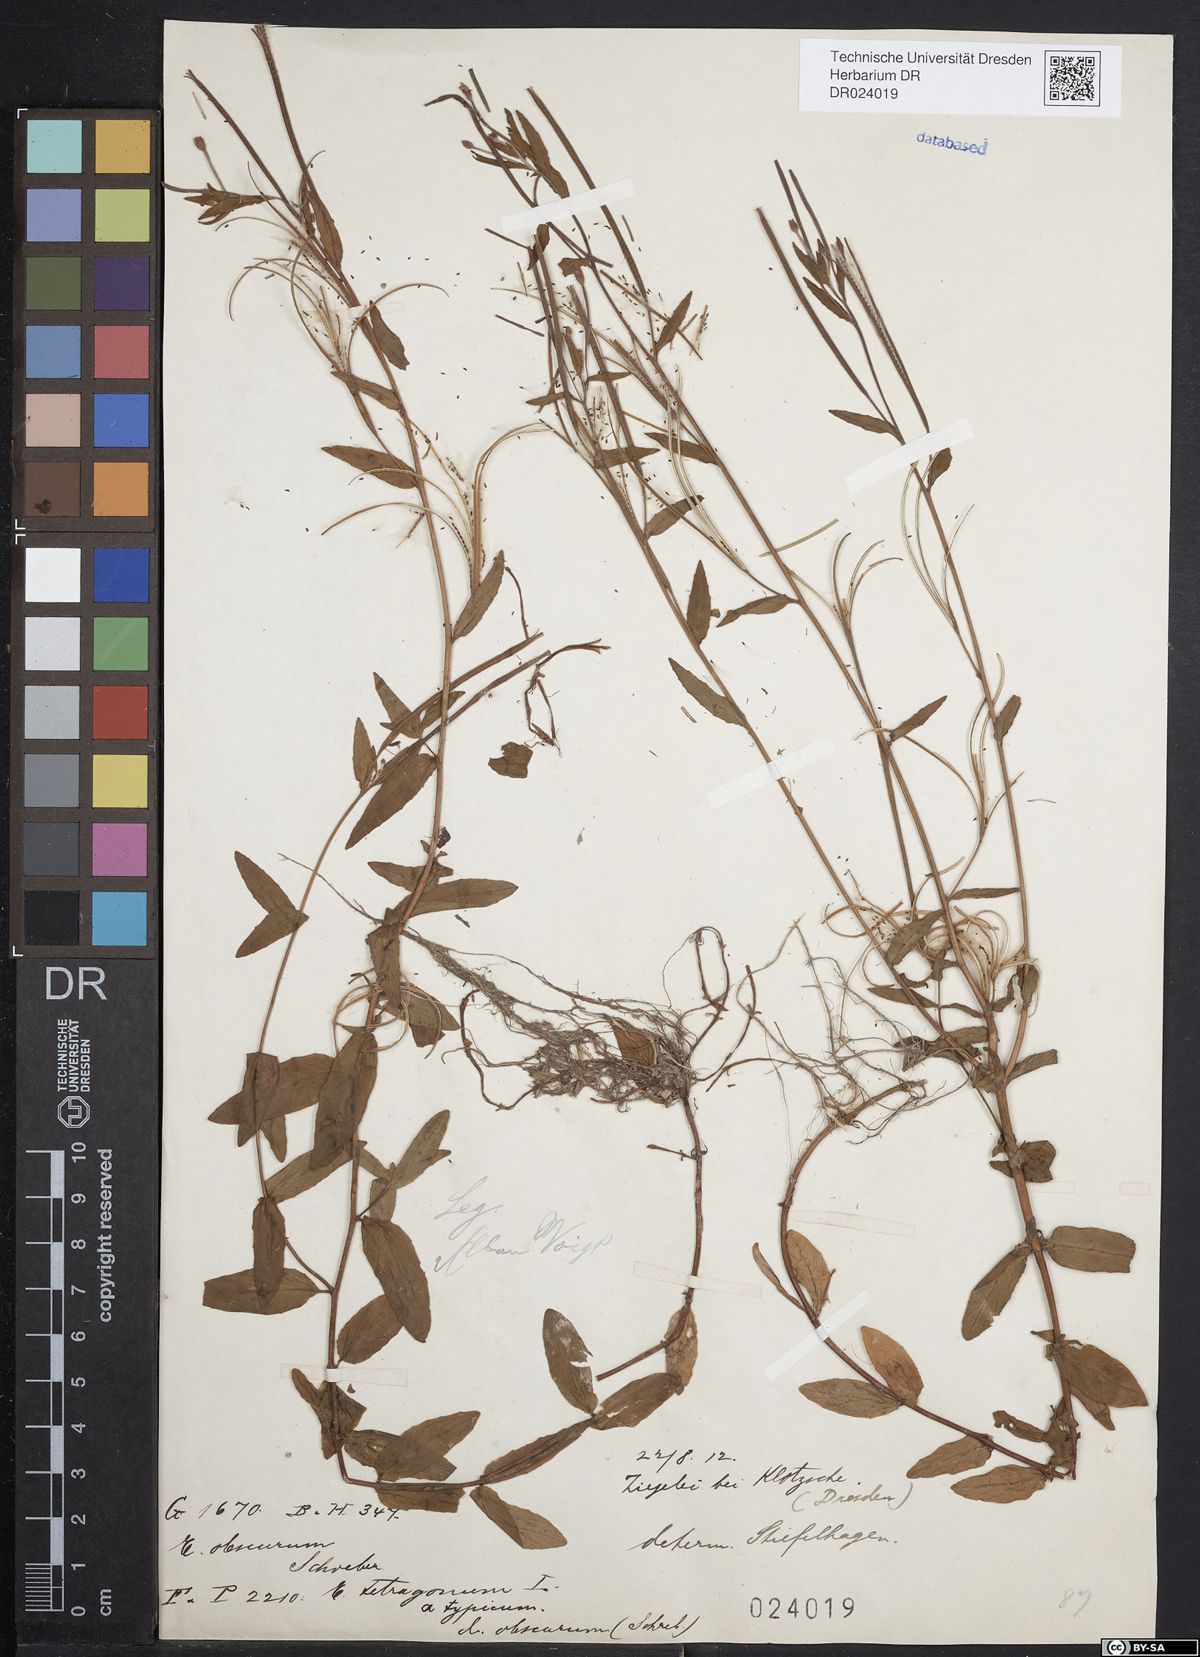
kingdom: Plantae
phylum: Tracheophyta
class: Magnoliopsida
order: Myrtales
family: Onagraceae
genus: Epilobium
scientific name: Epilobium obscurum
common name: Short-fruited willowherb
